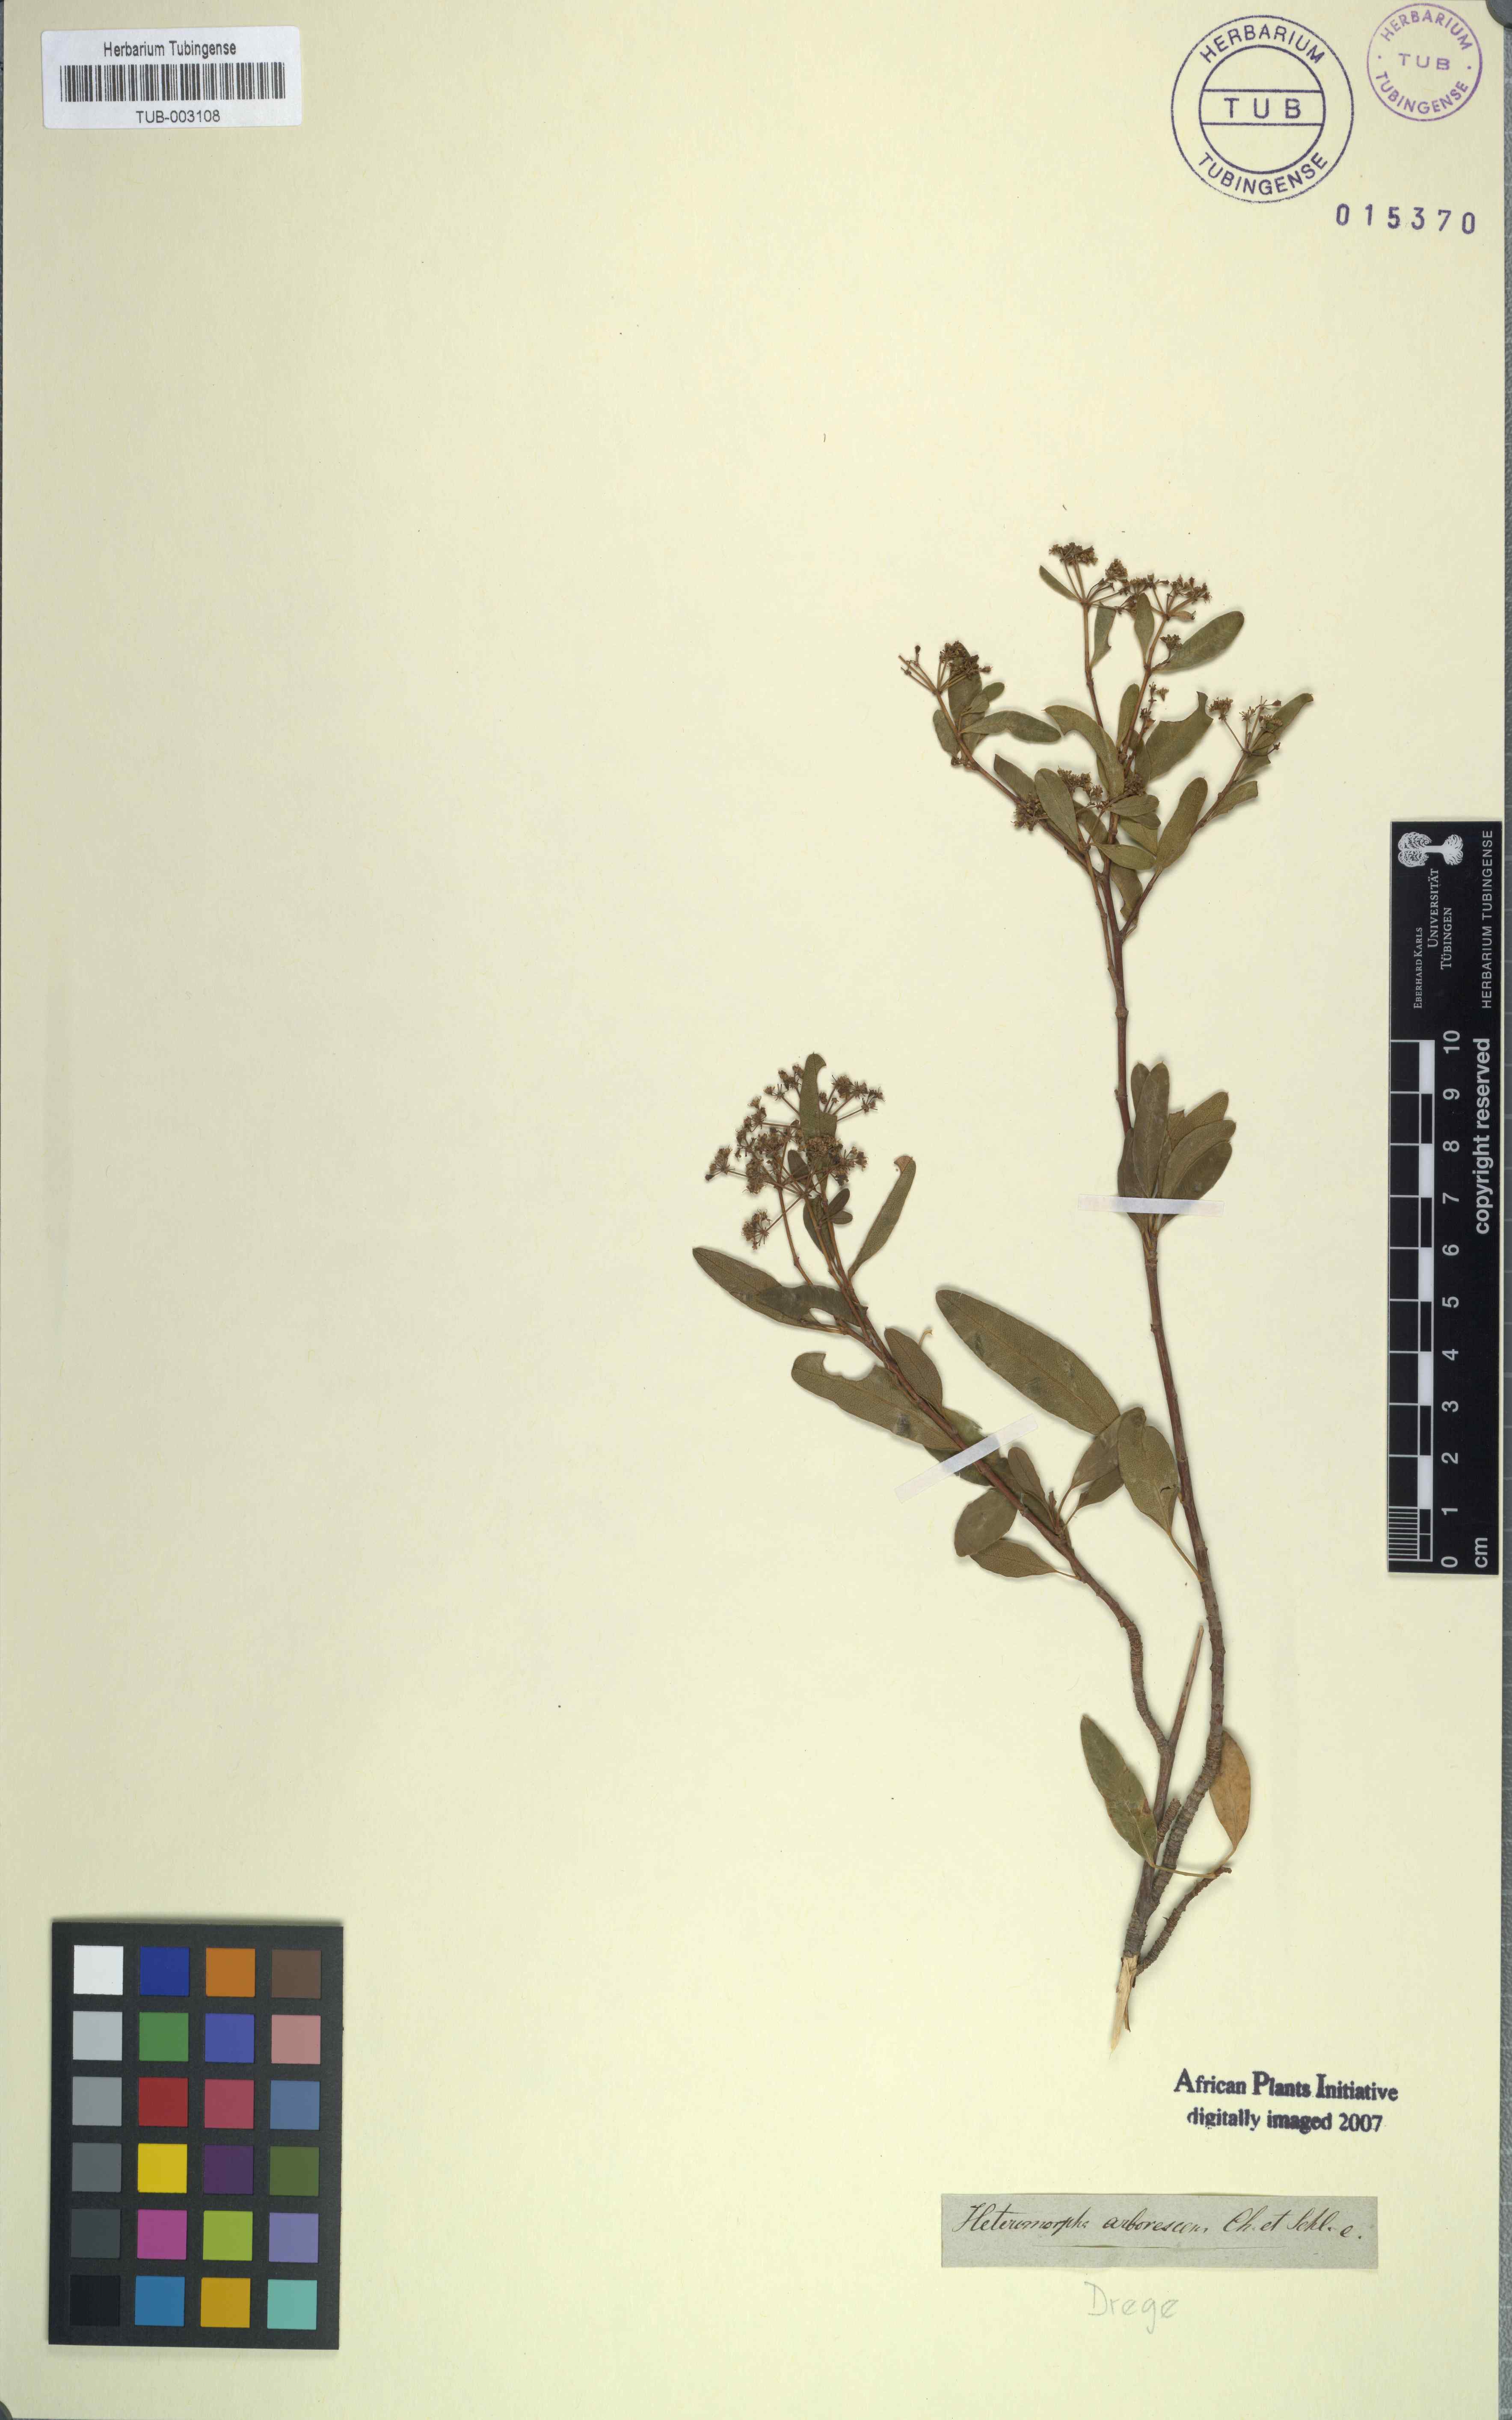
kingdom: Plantae
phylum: Tracheophyta
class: Magnoliopsida
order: Apiales
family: Apiaceae
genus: Heteromorpha
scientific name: Heteromorpha arborescens
